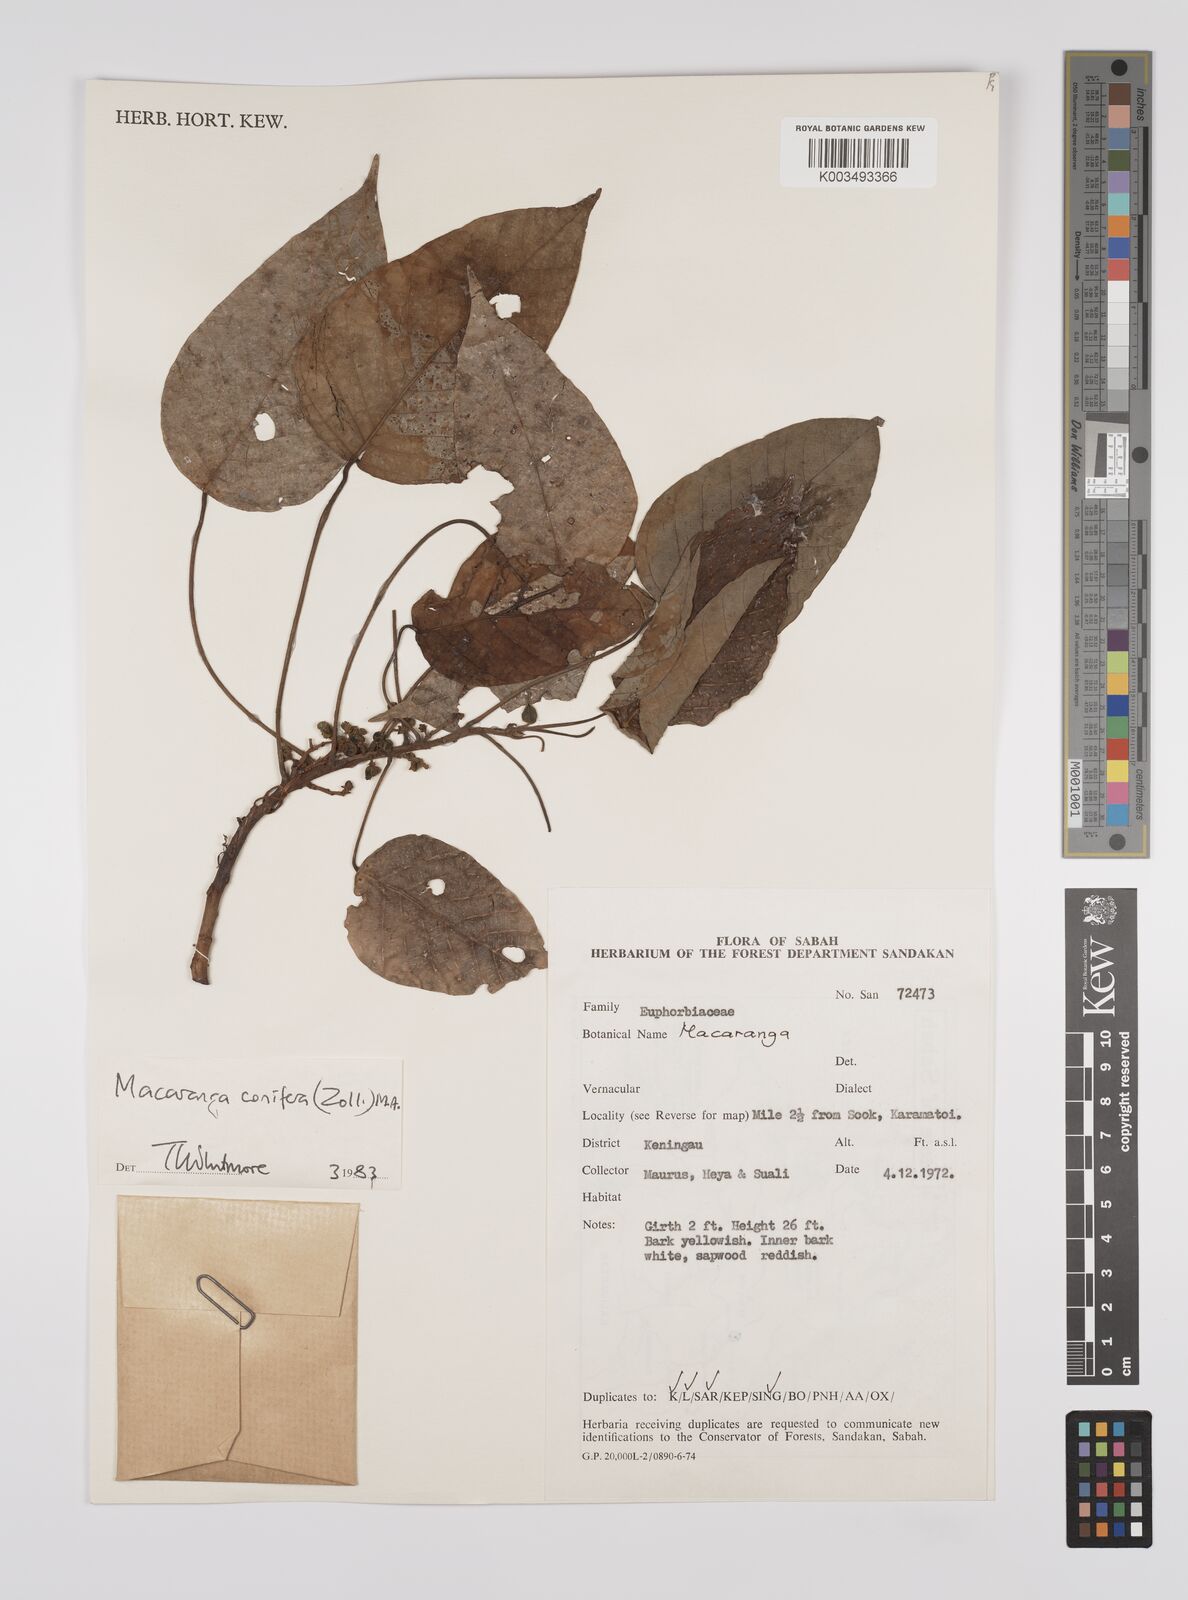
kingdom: Plantae
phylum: Tracheophyta
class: Magnoliopsida
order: Malpighiales
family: Euphorbiaceae
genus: Macaranga
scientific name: Macaranga conifera
